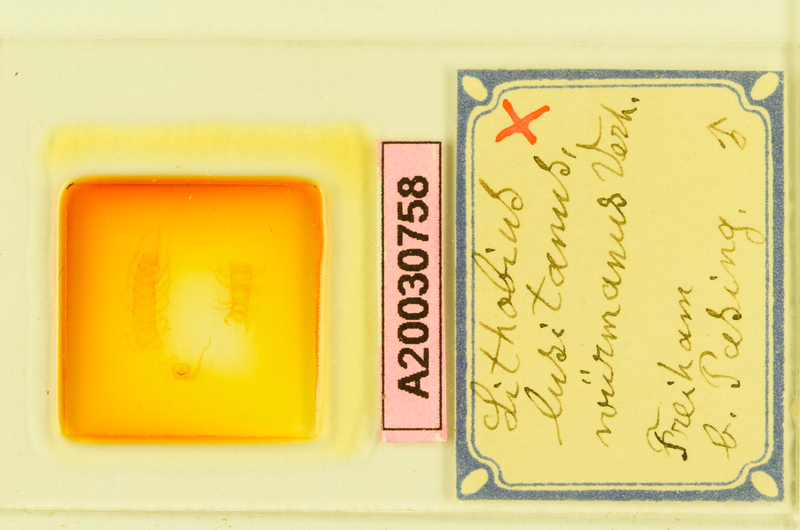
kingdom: Animalia
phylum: Arthropoda
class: Chilopoda
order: Lithobiomorpha
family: Lithobiidae
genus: Lithobius
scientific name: Lithobius borealis
